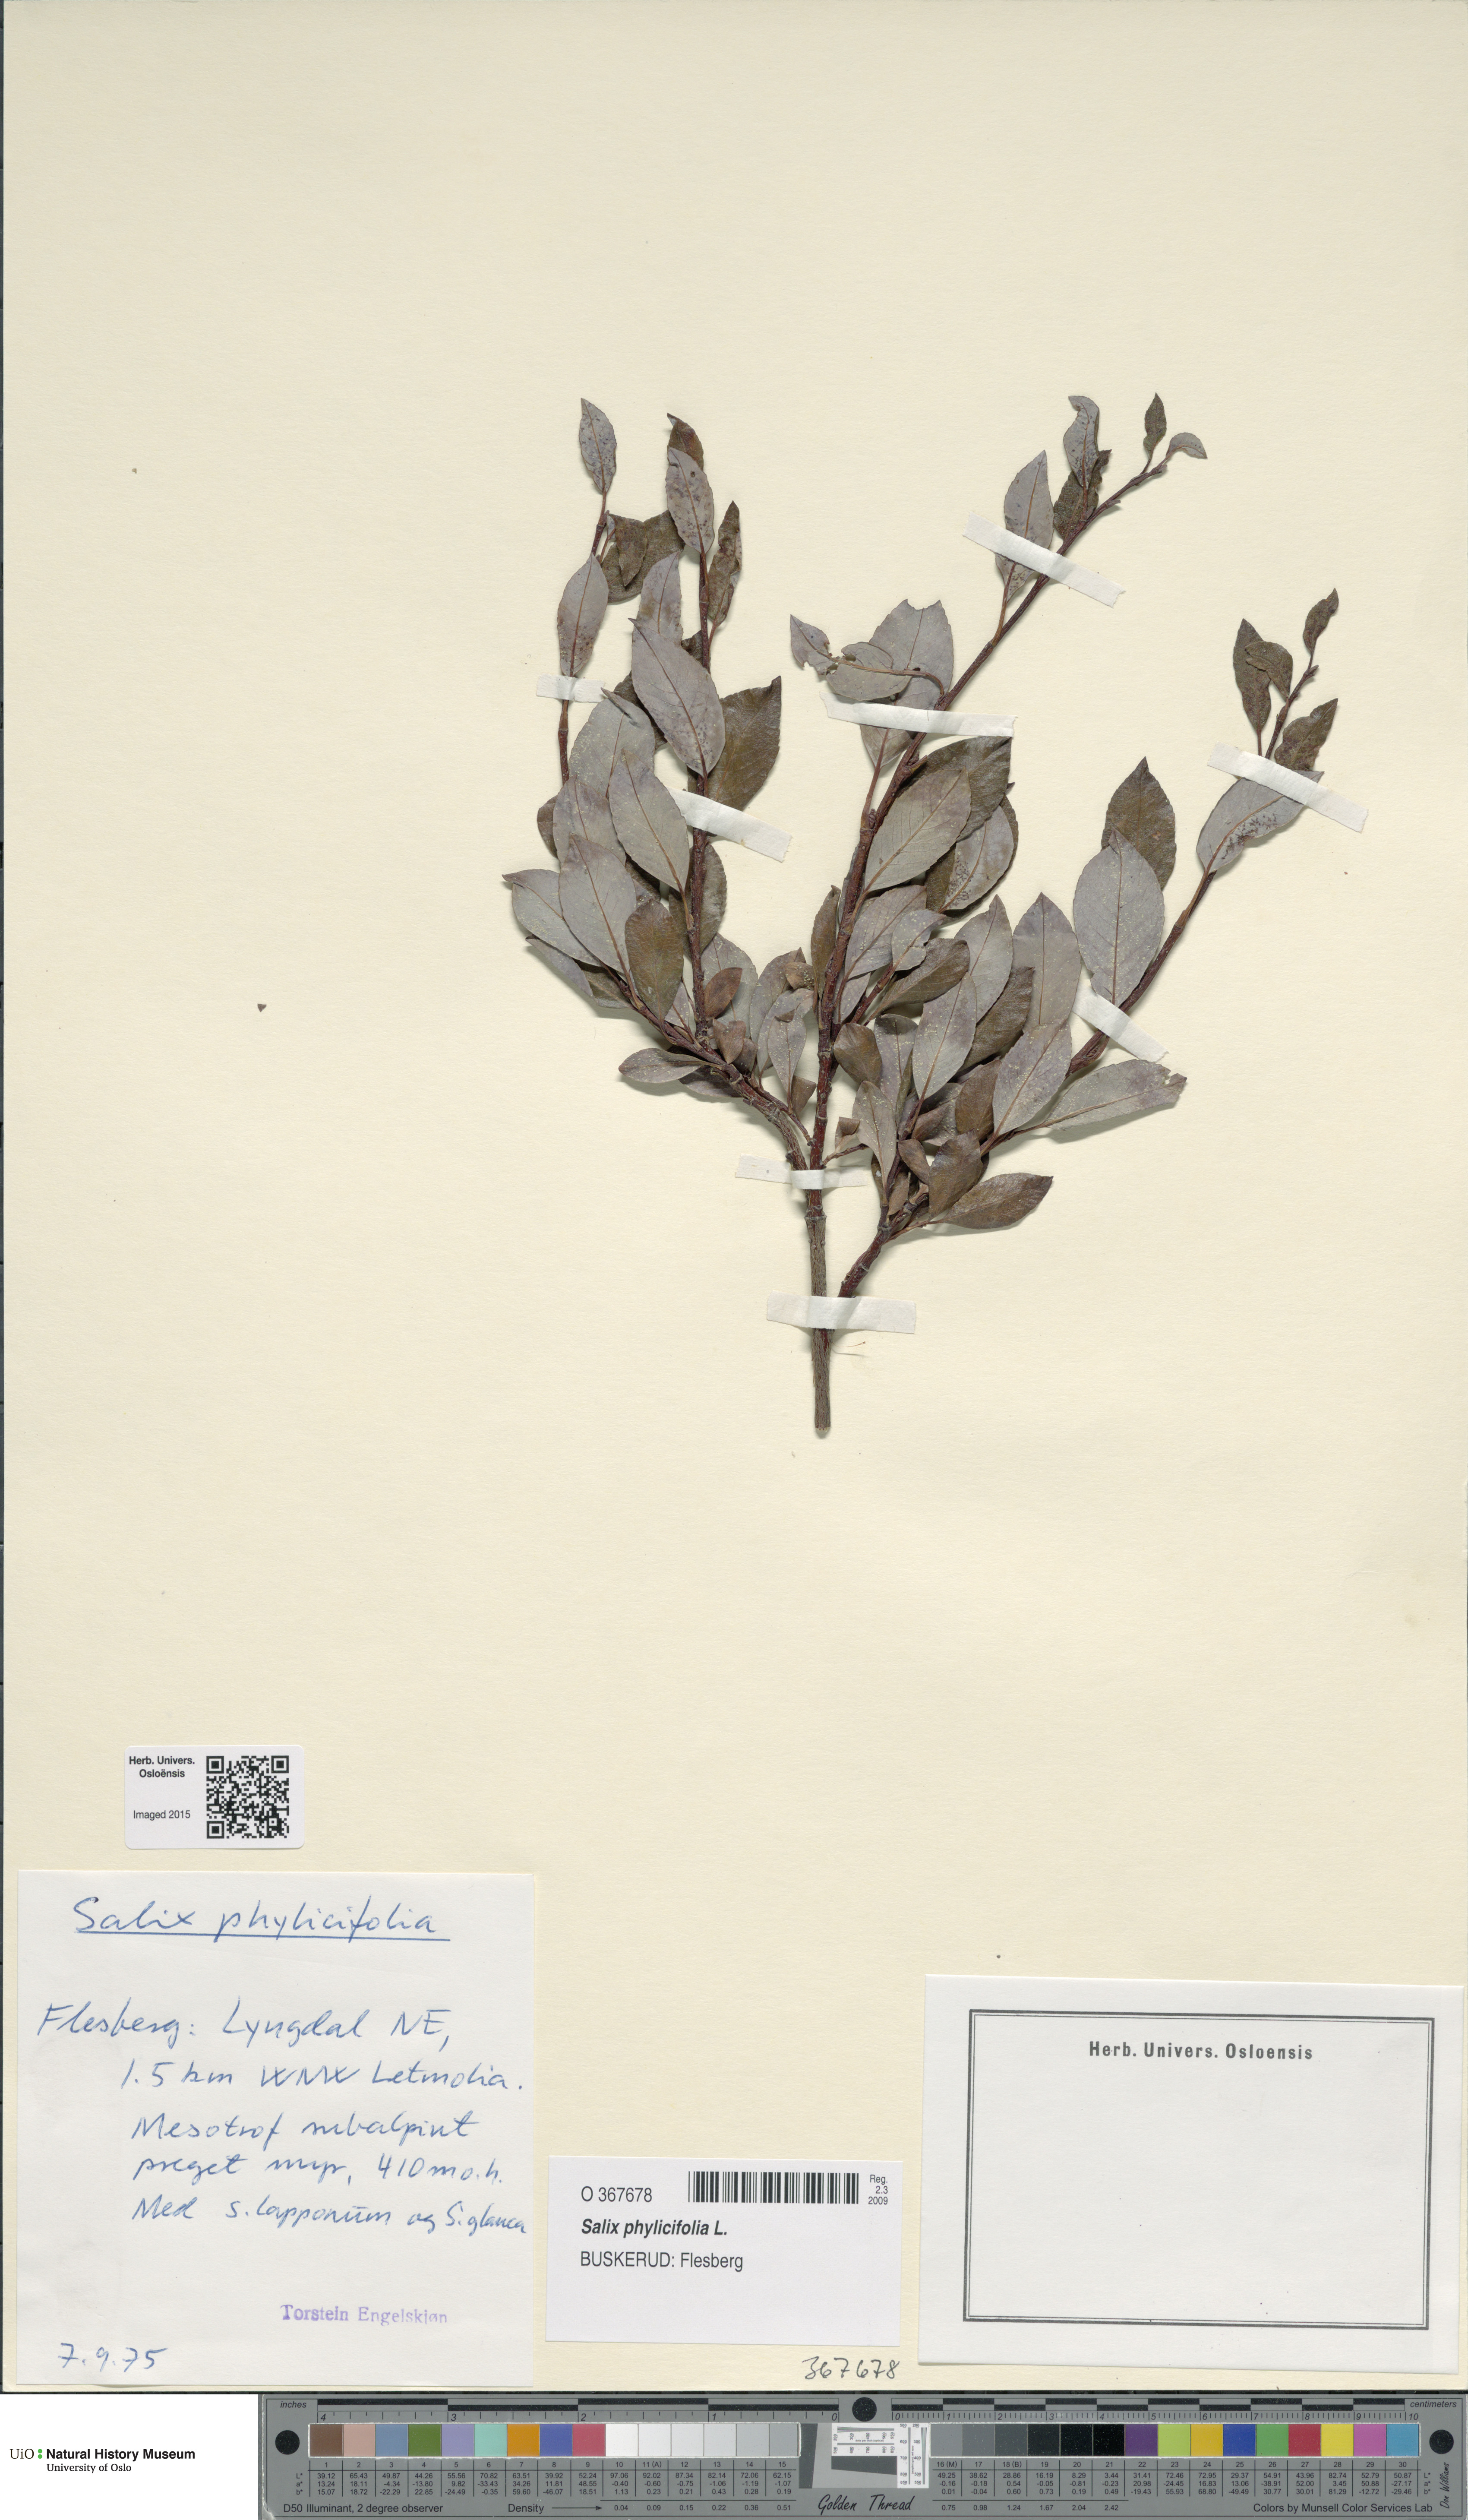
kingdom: Plantae
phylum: Tracheophyta
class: Magnoliopsida
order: Malpighiales
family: Salicaceae
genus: Salix
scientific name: Salix
